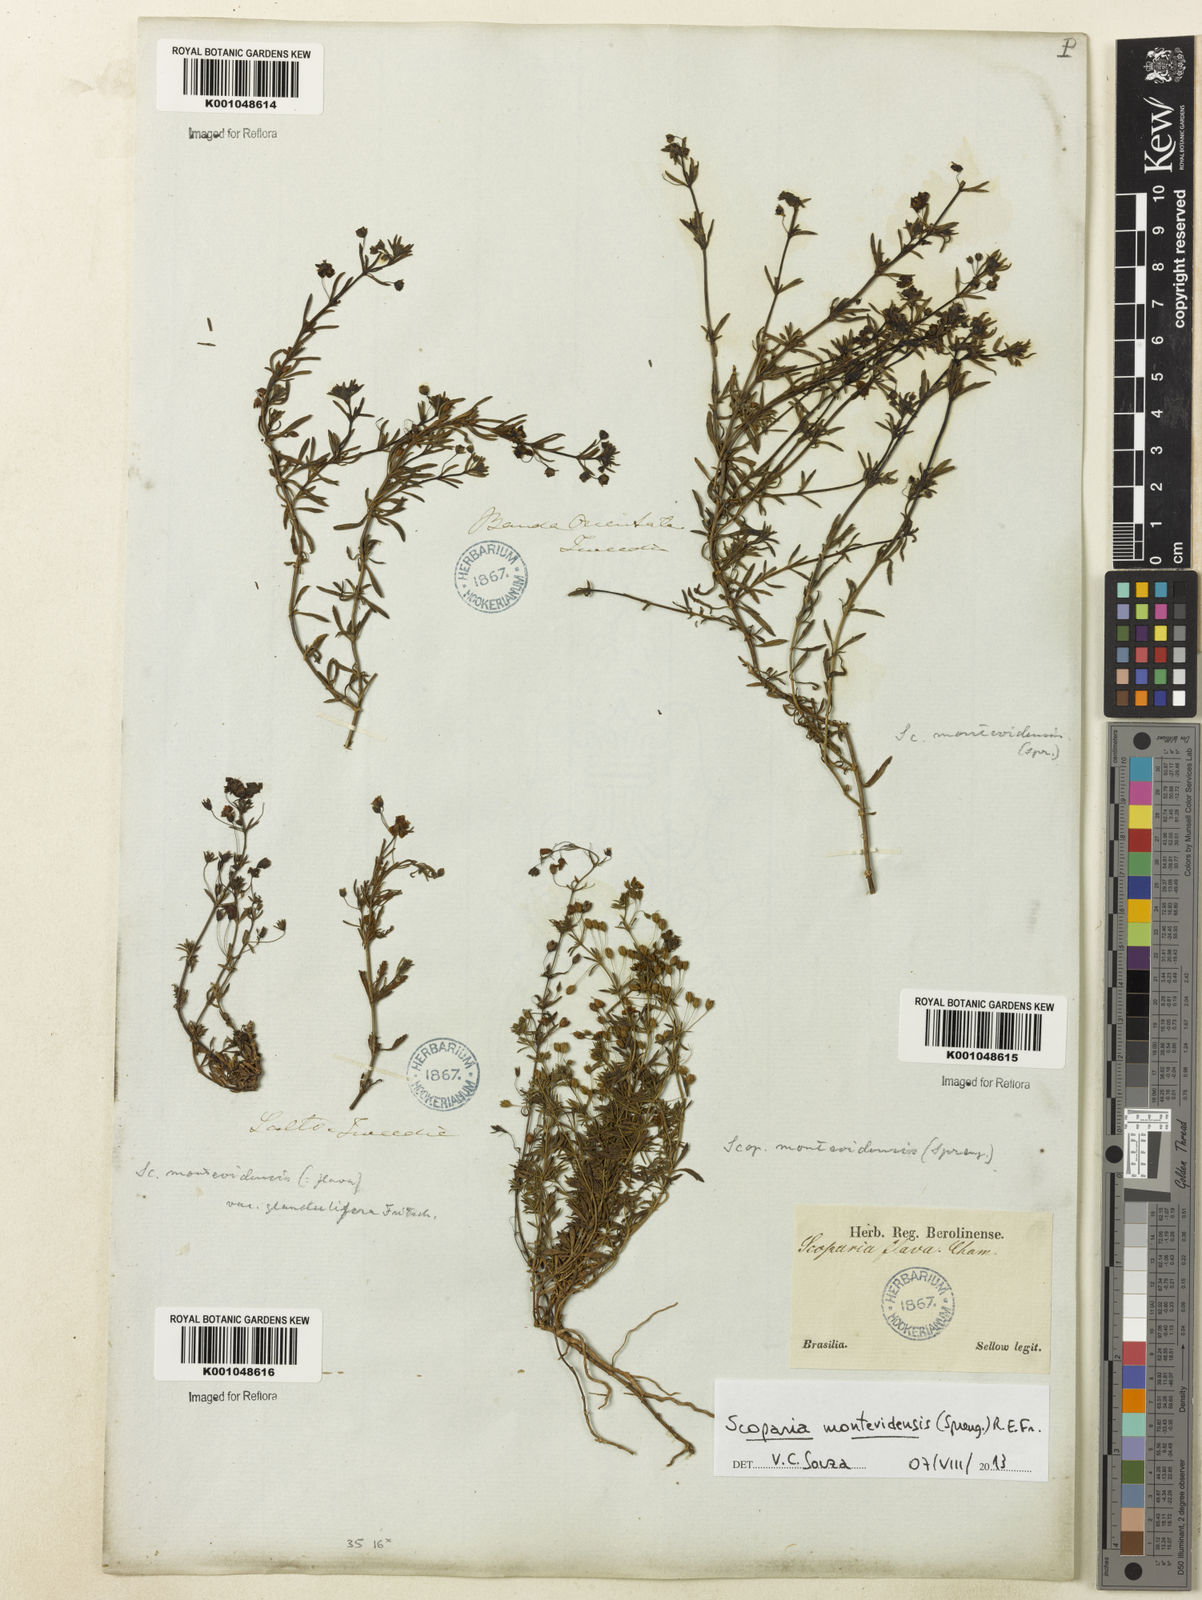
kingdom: Plantae
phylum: Tracheophyta
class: Magnoliopsida
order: Lamiales
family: Plantaginaceae
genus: Scoparia
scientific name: Scoparia montevidensis
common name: Broomwort
